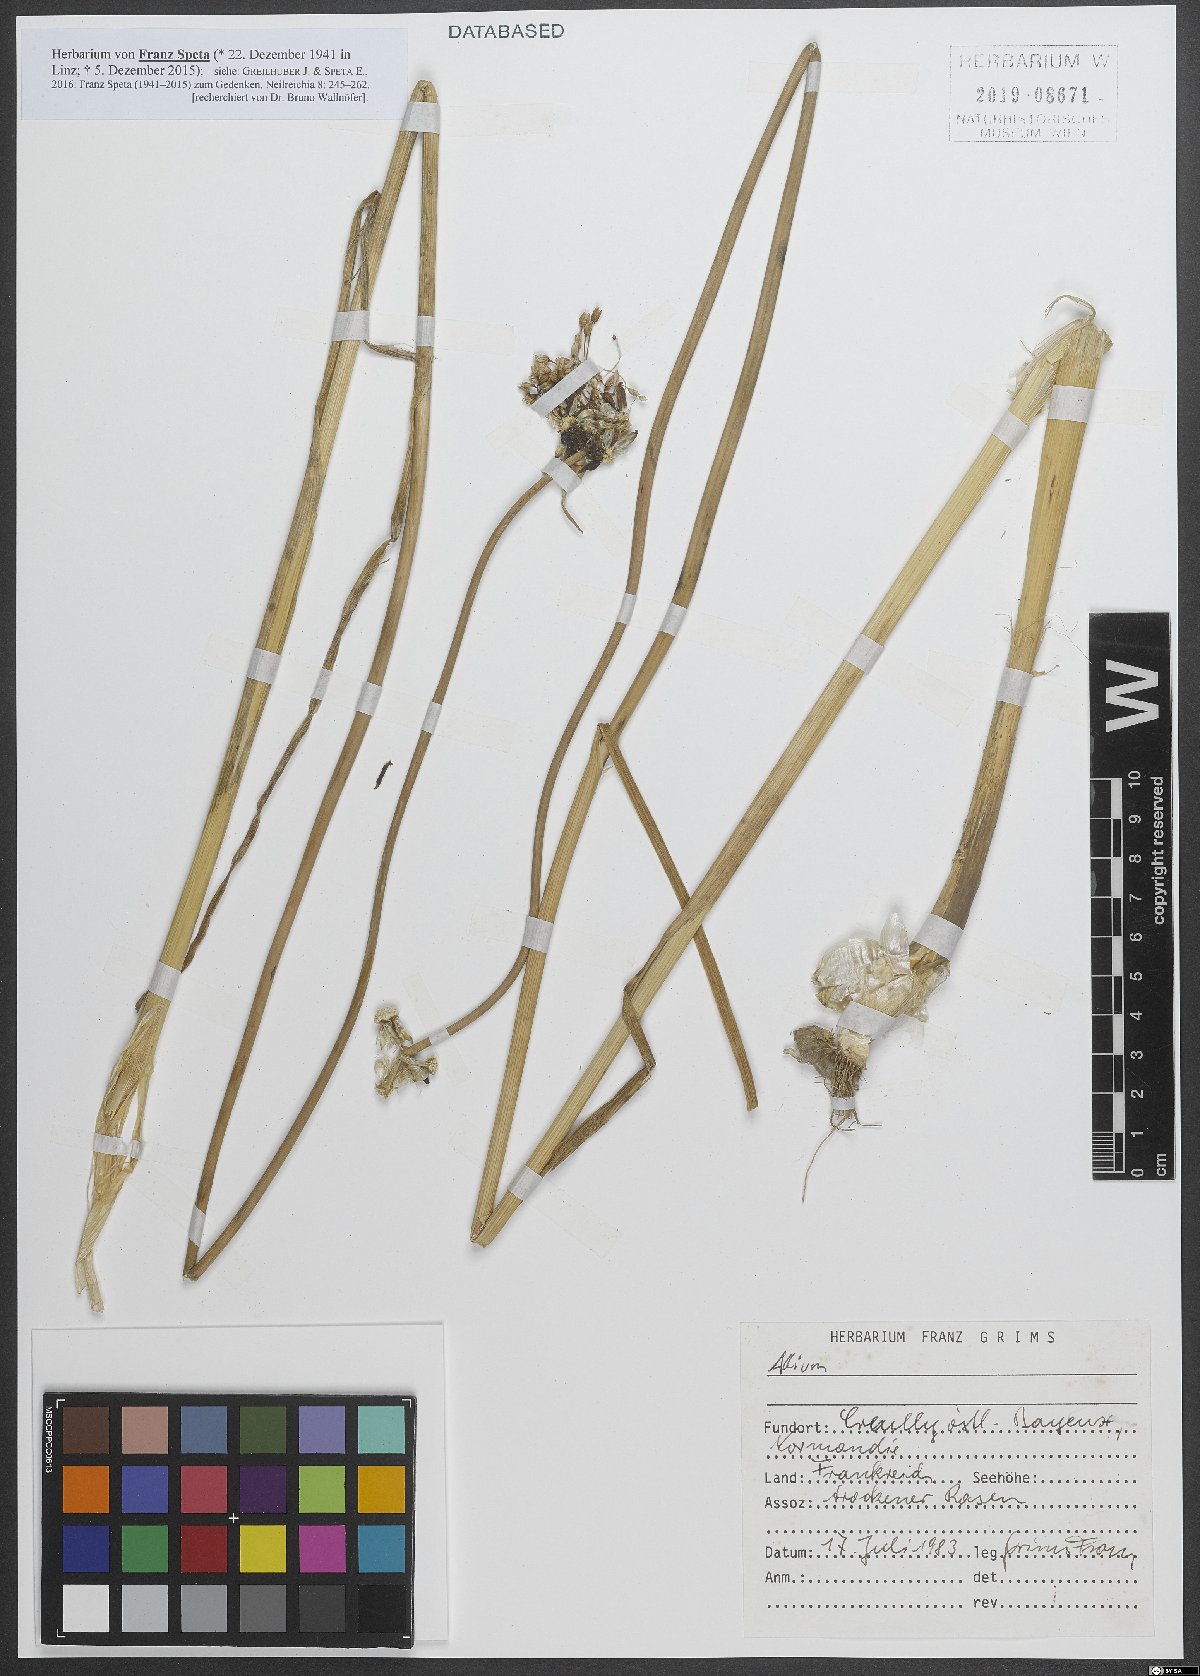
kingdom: Plantae
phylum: Tracheophyta
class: Liliopsida
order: Asparagales
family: Amaryllidaceae
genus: Allium
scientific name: Allium
